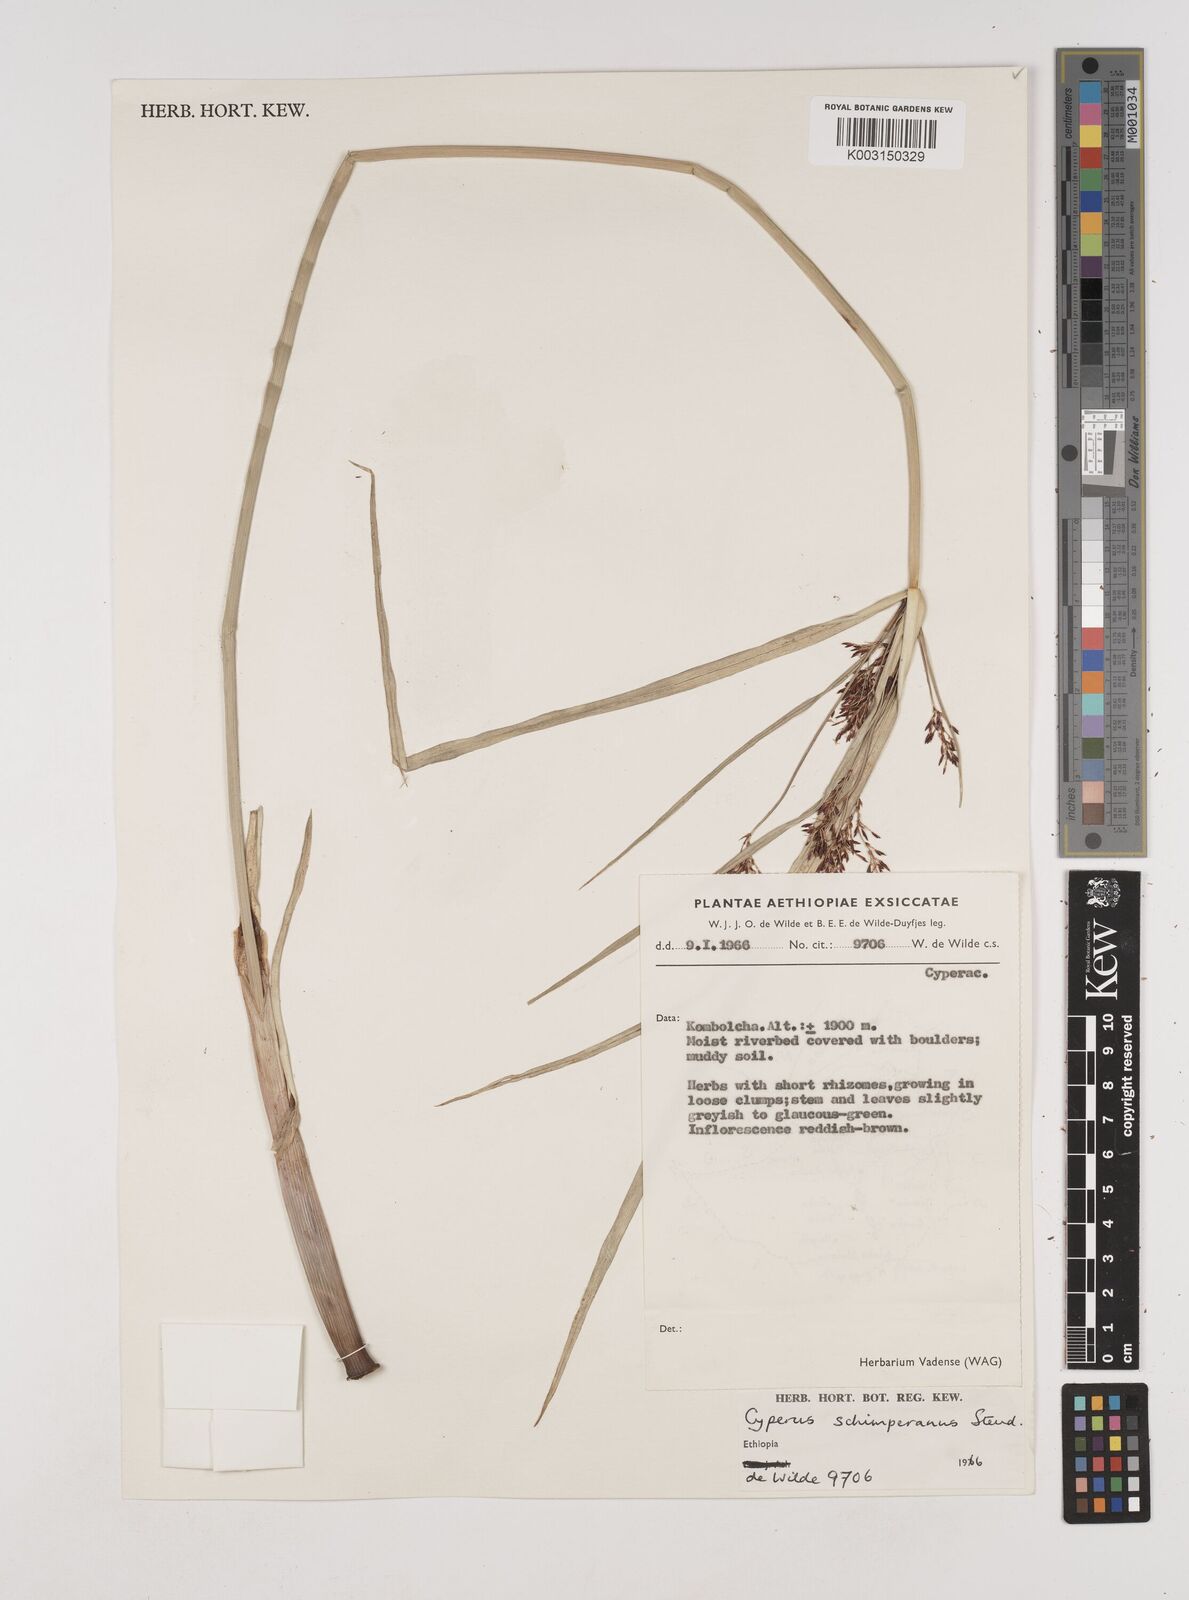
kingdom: Plantae
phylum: Tracheophyta
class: Liliopsida
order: Poales
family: Cyperaceae
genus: Cyperus
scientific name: Cyperus schimperianus
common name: Schimper flatsedge
